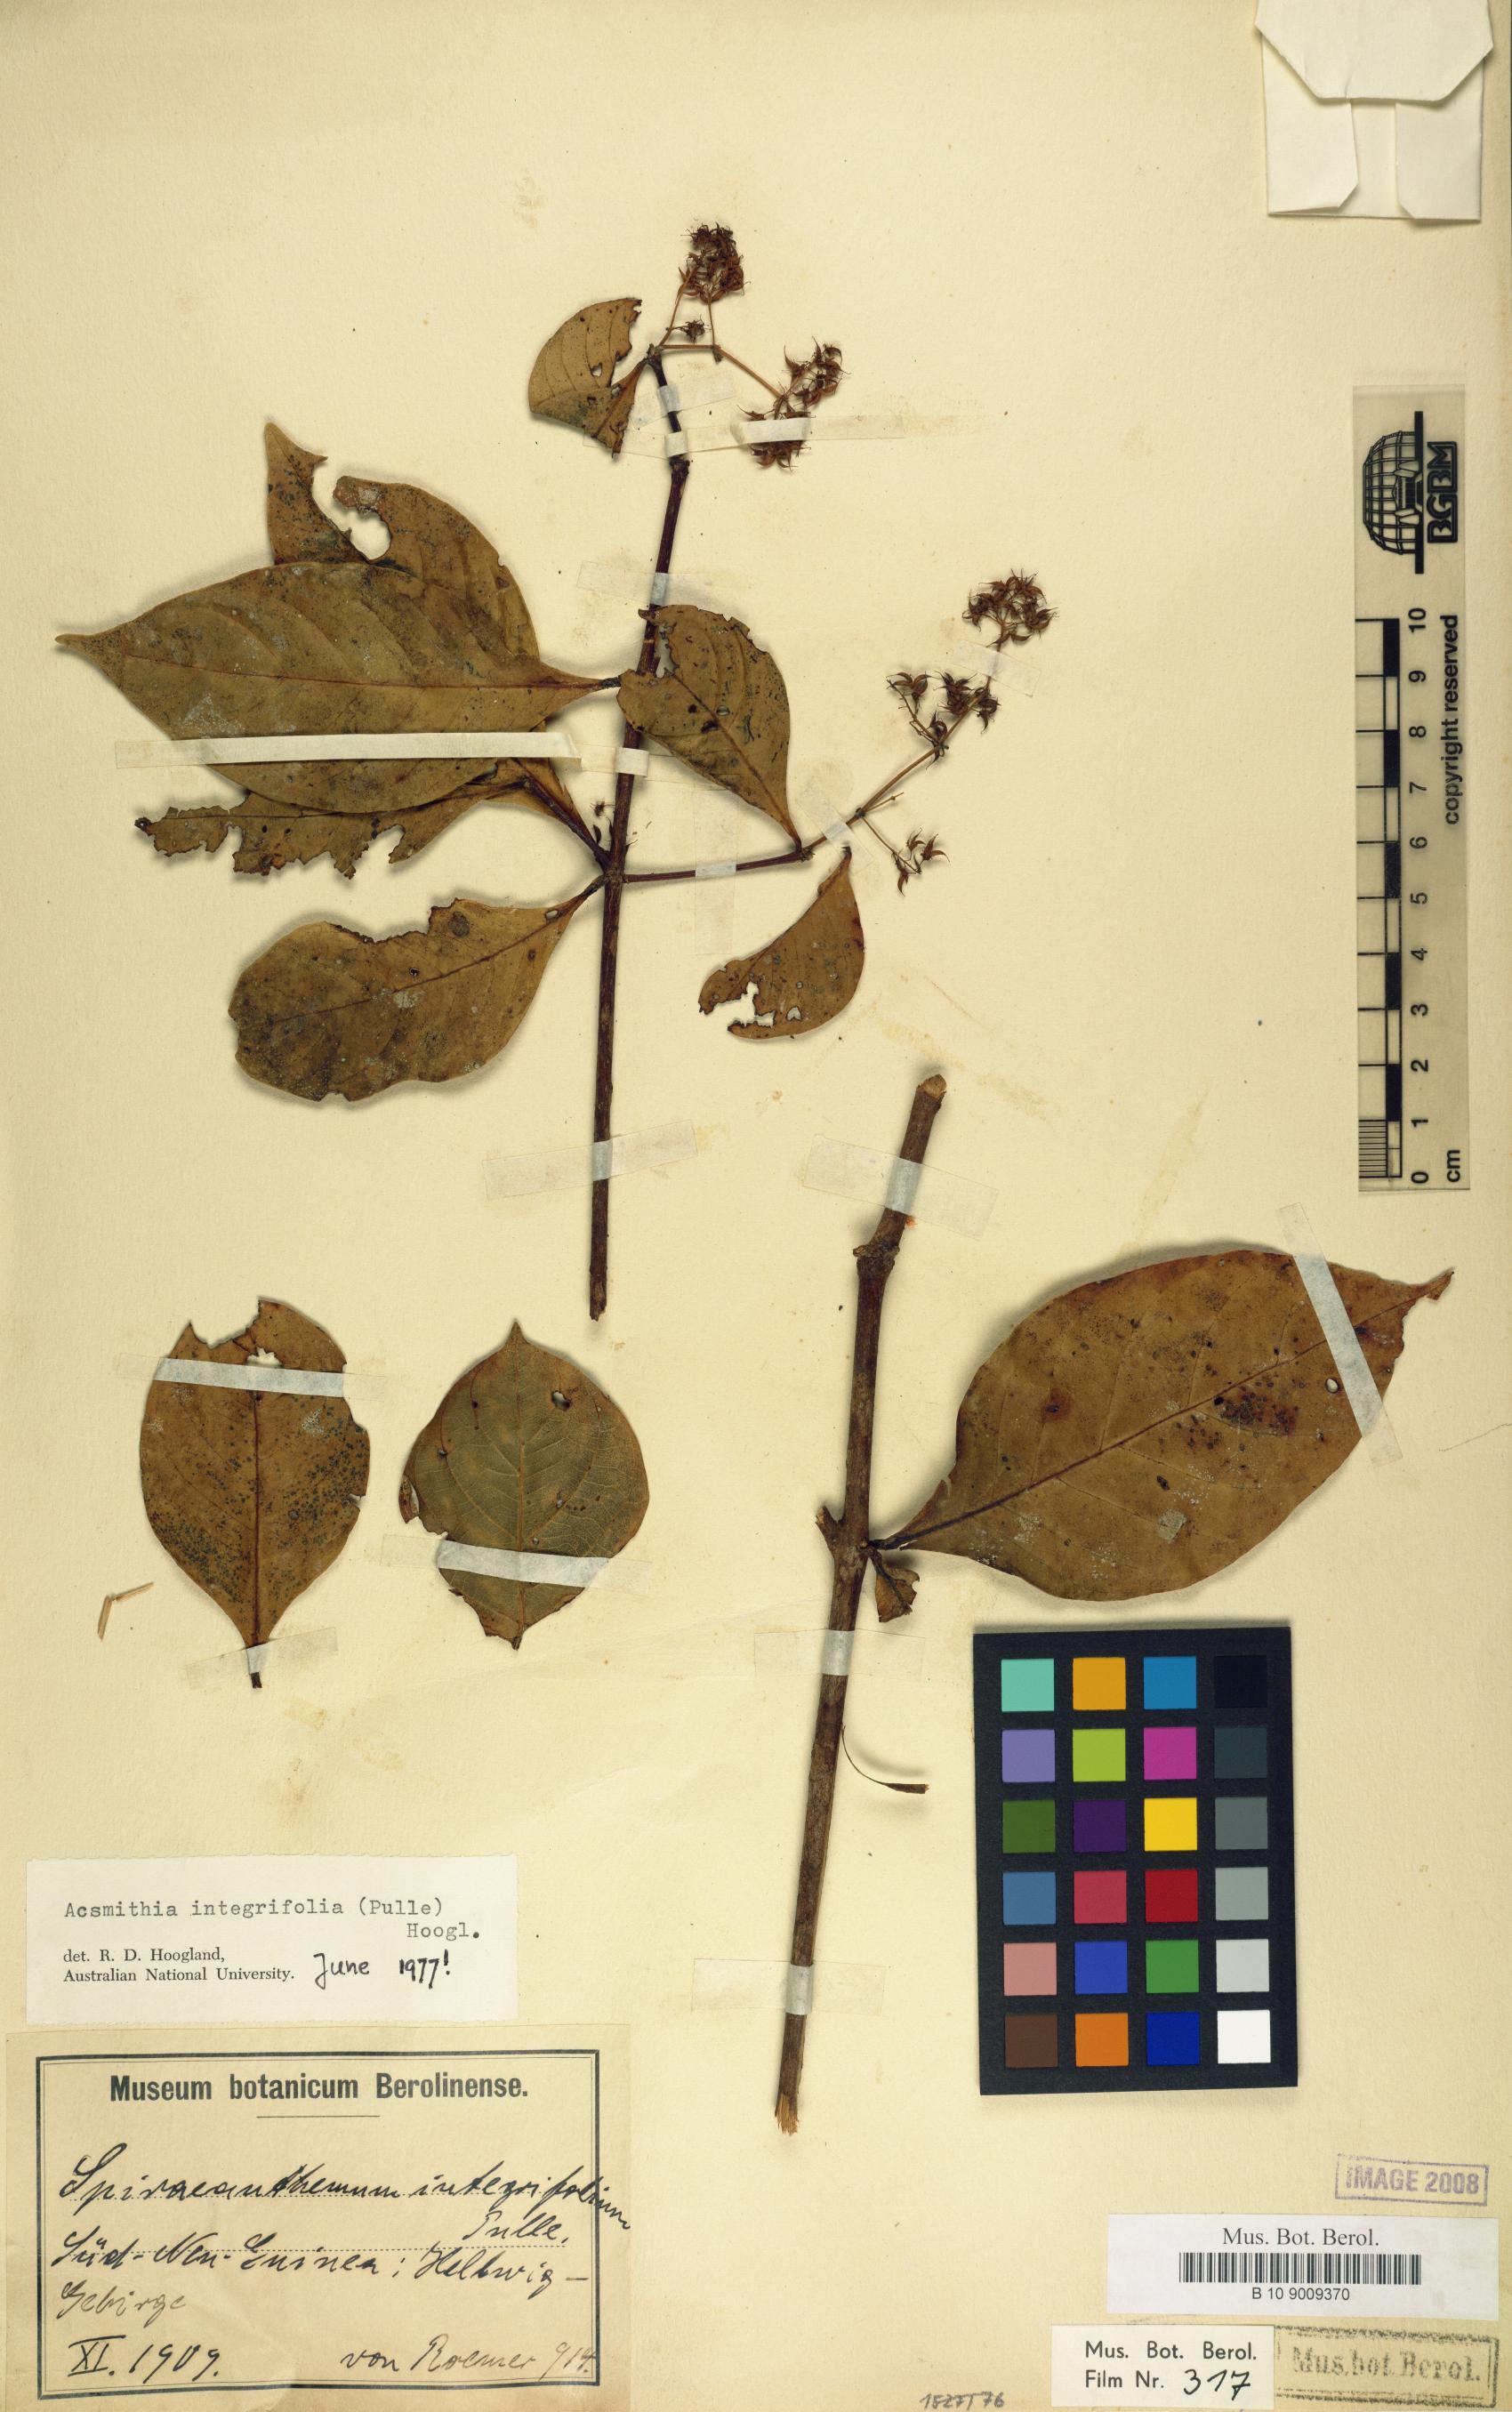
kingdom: Plantae
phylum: Tracheophyta
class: Magnoliopsida
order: Oxalidales
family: Cunoniaceae
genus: Spiraeanthemum
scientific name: Spiraeanthemum integrifolium
